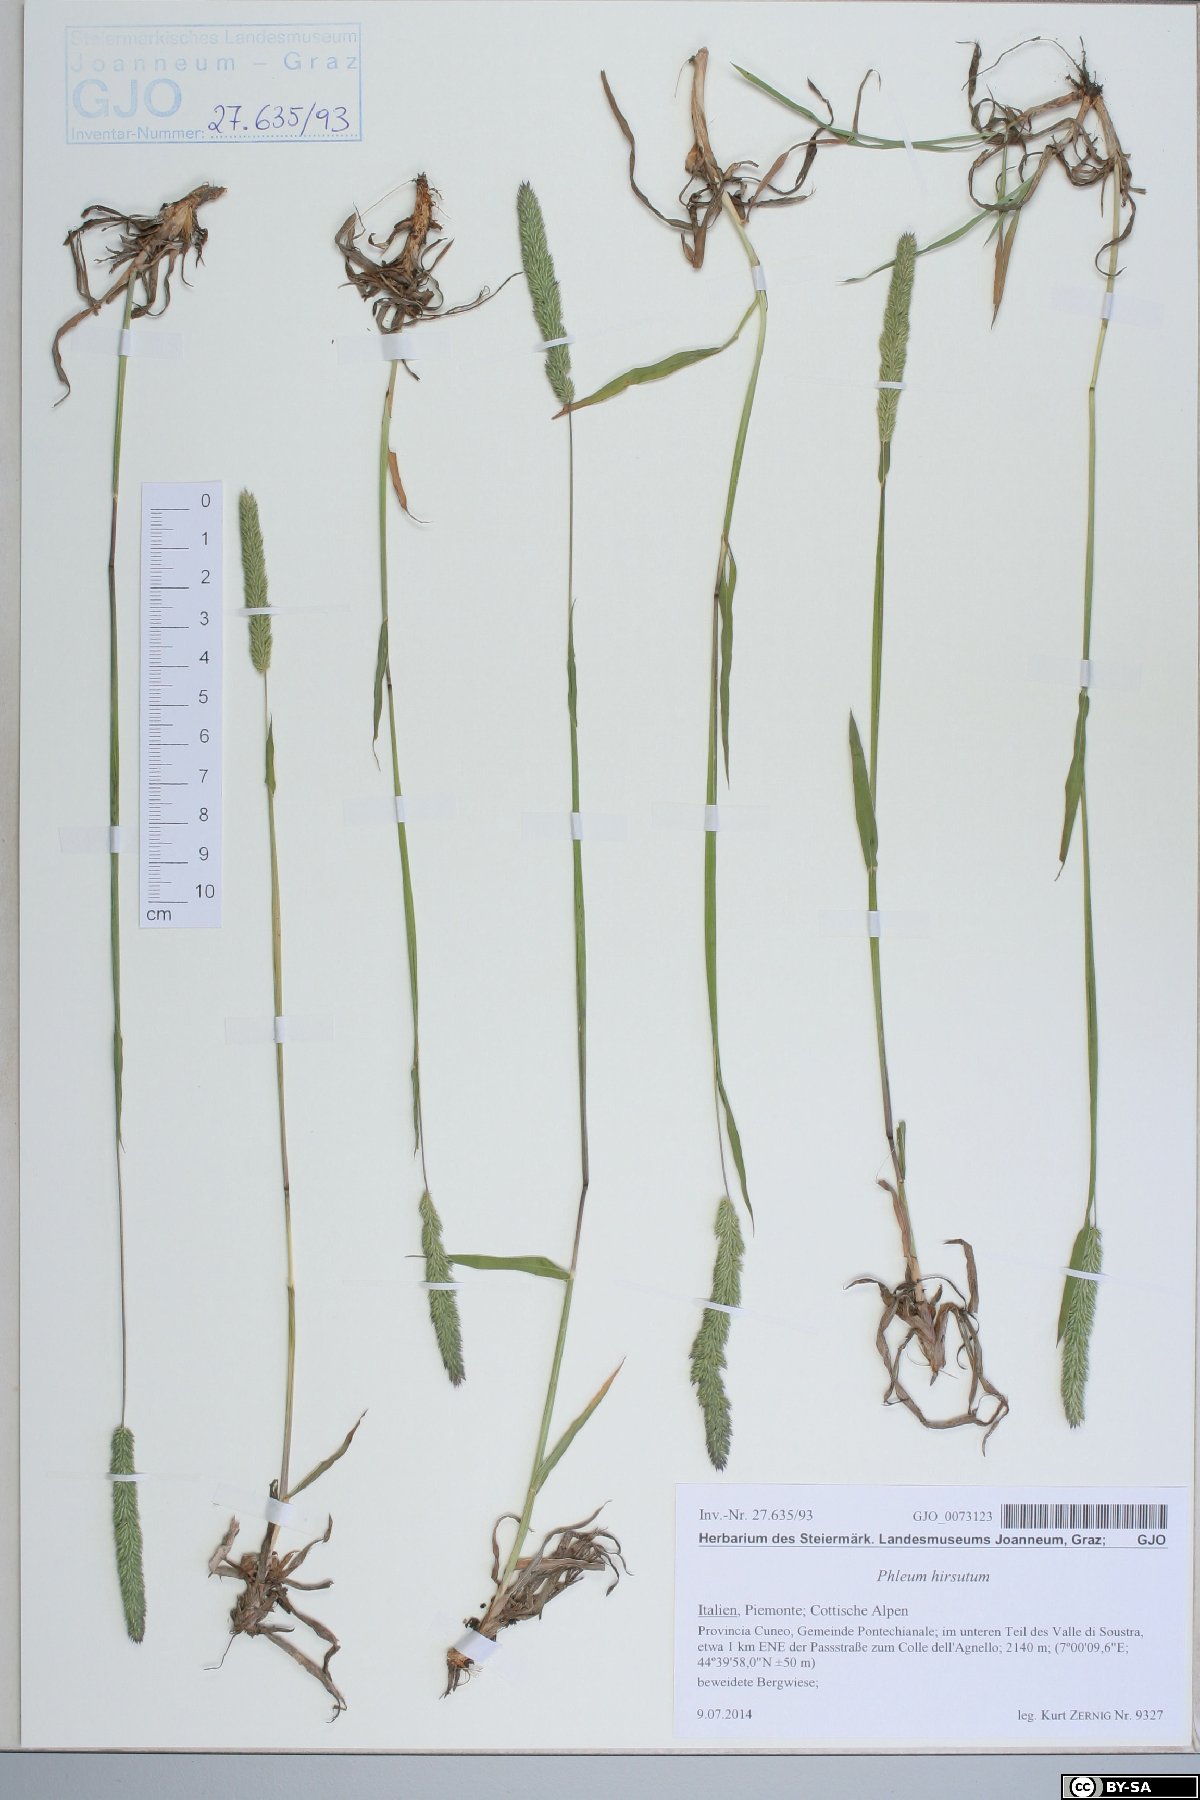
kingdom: Plantae
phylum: Tracheophyta
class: Liliopsida
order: Poales
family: Poaceae
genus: Phleum
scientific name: Phleum hirsutum
